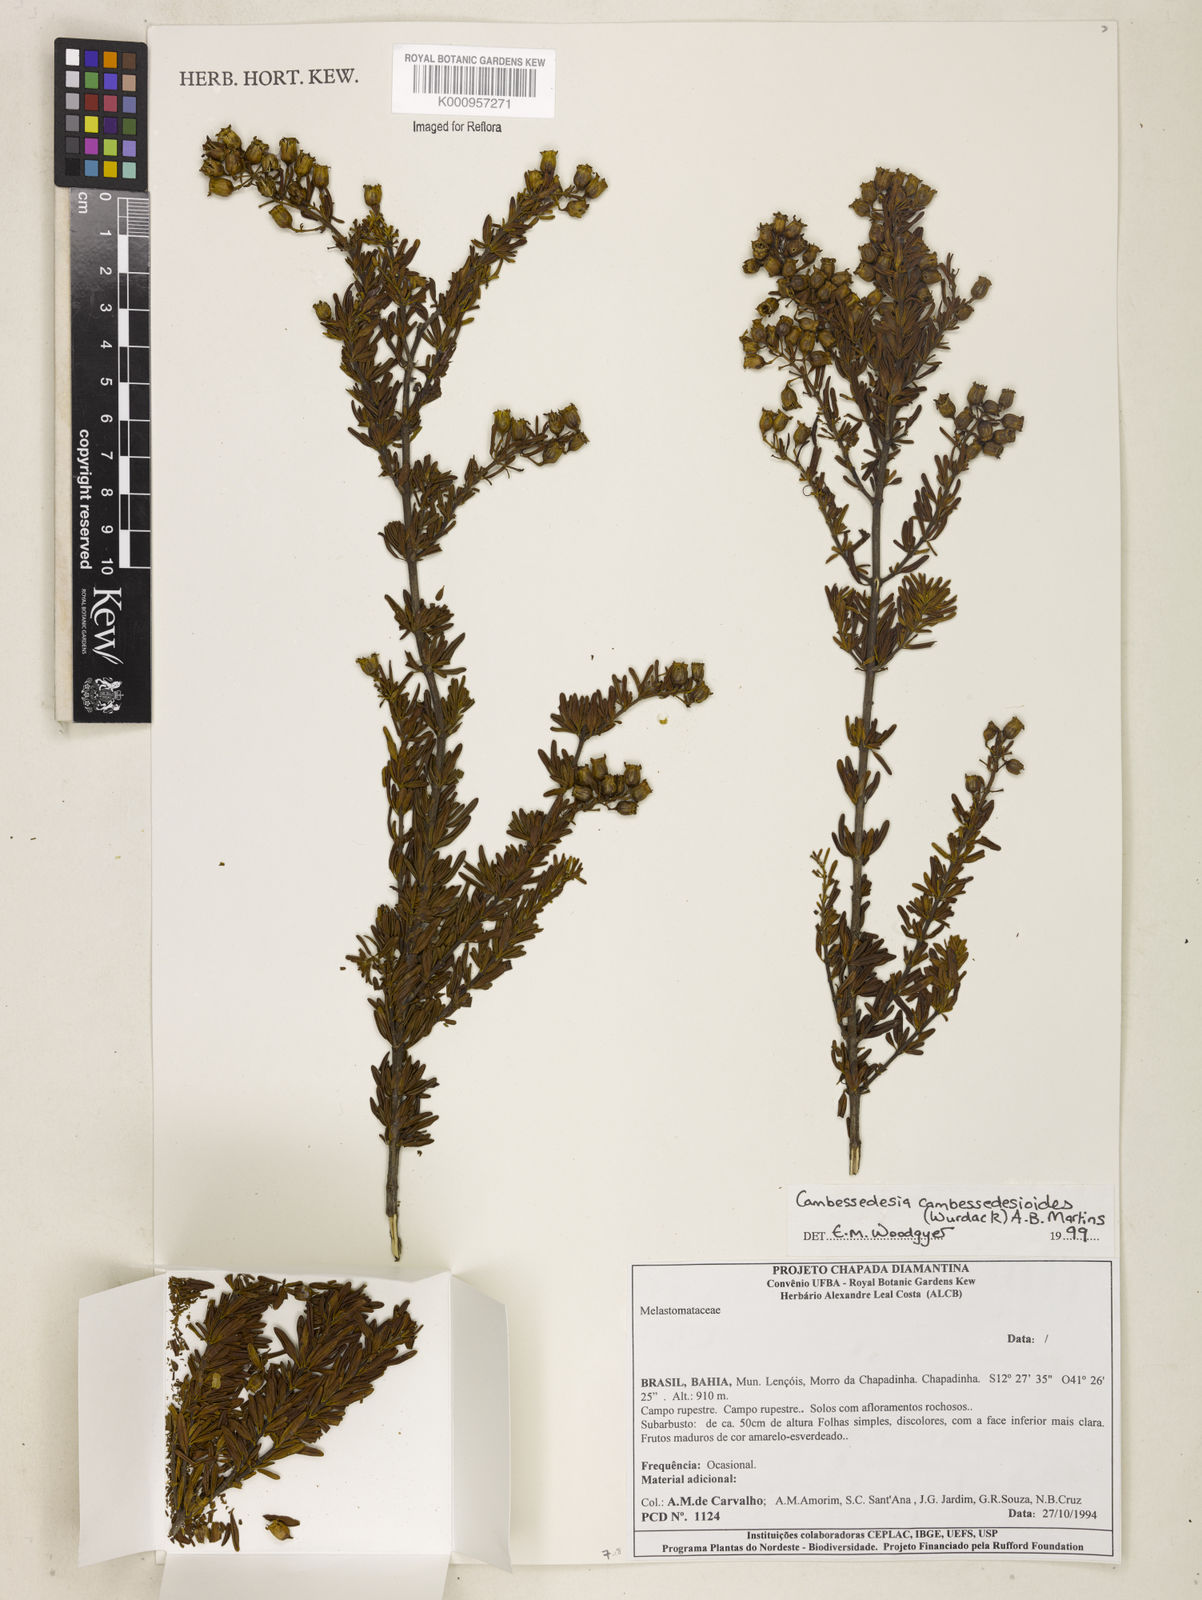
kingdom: Plantae
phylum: Tracheophyta
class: Magnoliopsida
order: Myrtales
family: Melastomataceae
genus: Cambessedesia
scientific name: Cambessedesia cambessedesioides
